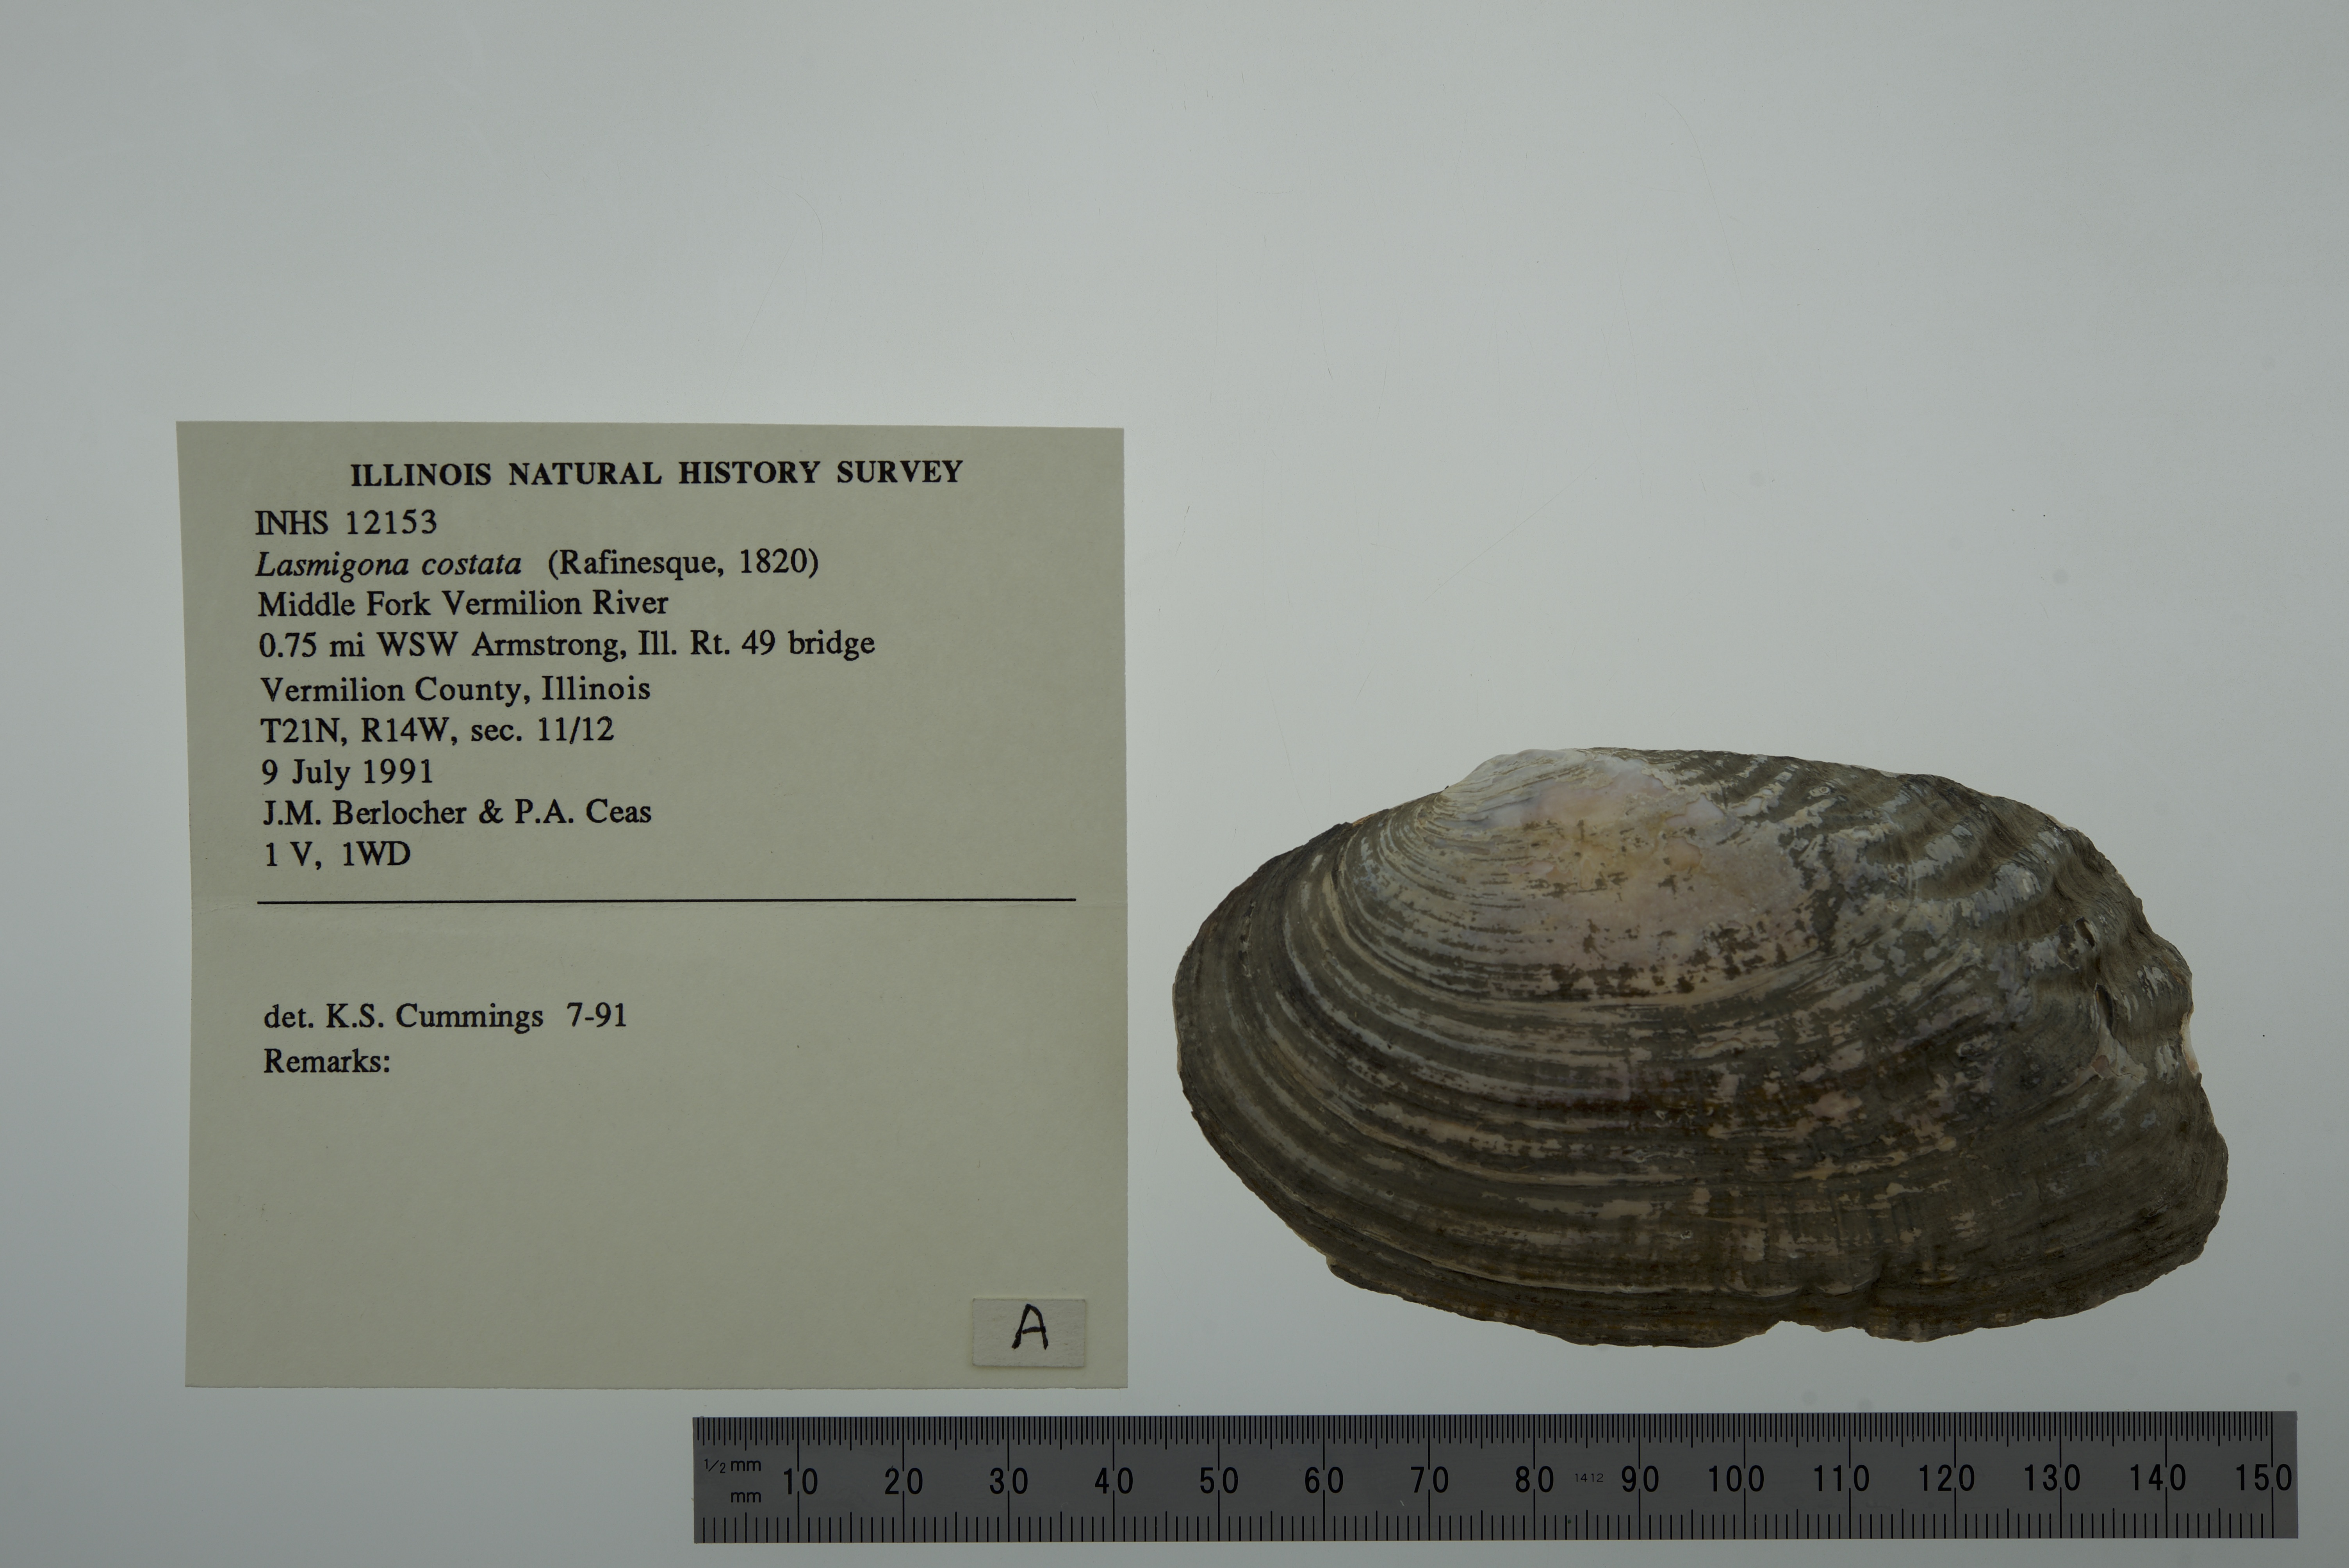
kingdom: Animalia
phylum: Mollusca
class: Bivalvia
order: Unionida
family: Unionidae
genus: Lasmigona
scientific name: Lasmigona costata
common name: Flutedshell
